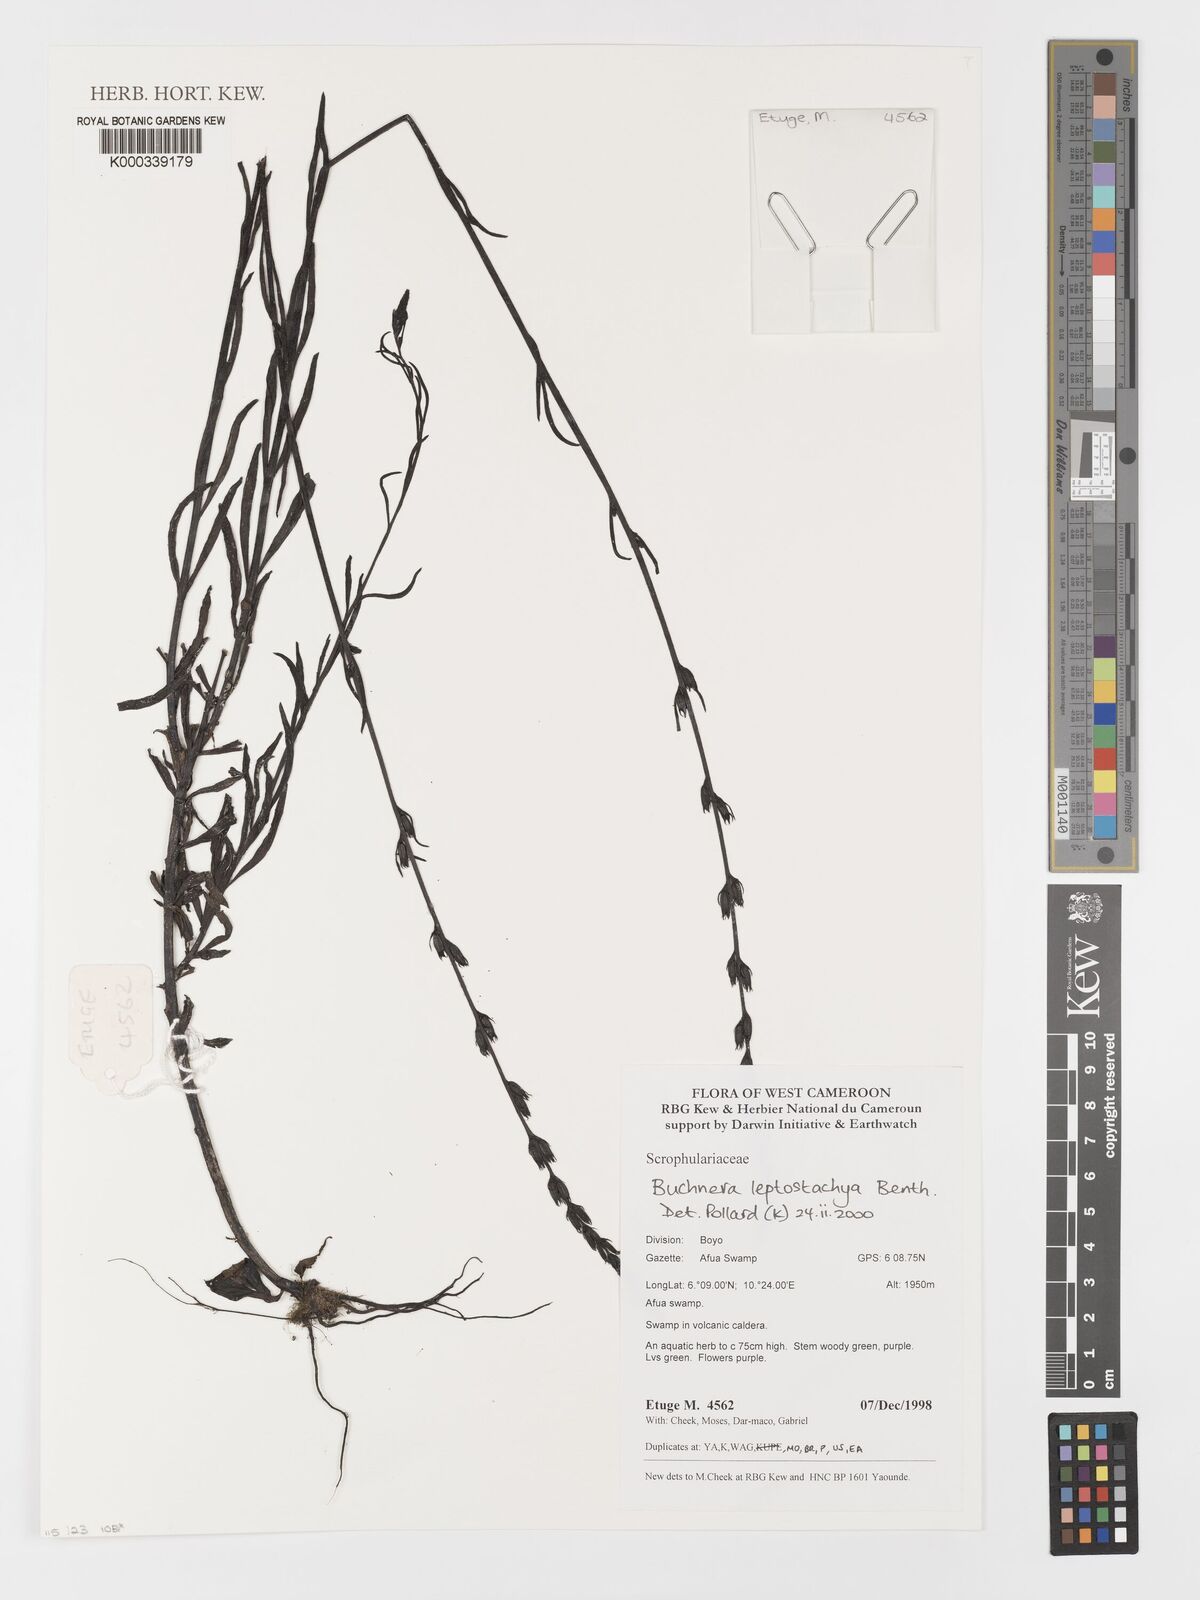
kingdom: Plantae
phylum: Tracheophyta
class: Magnoliopsida
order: Lamiales
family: Orobanchaceae
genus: Buchnera
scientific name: Buchnera leptostachya
